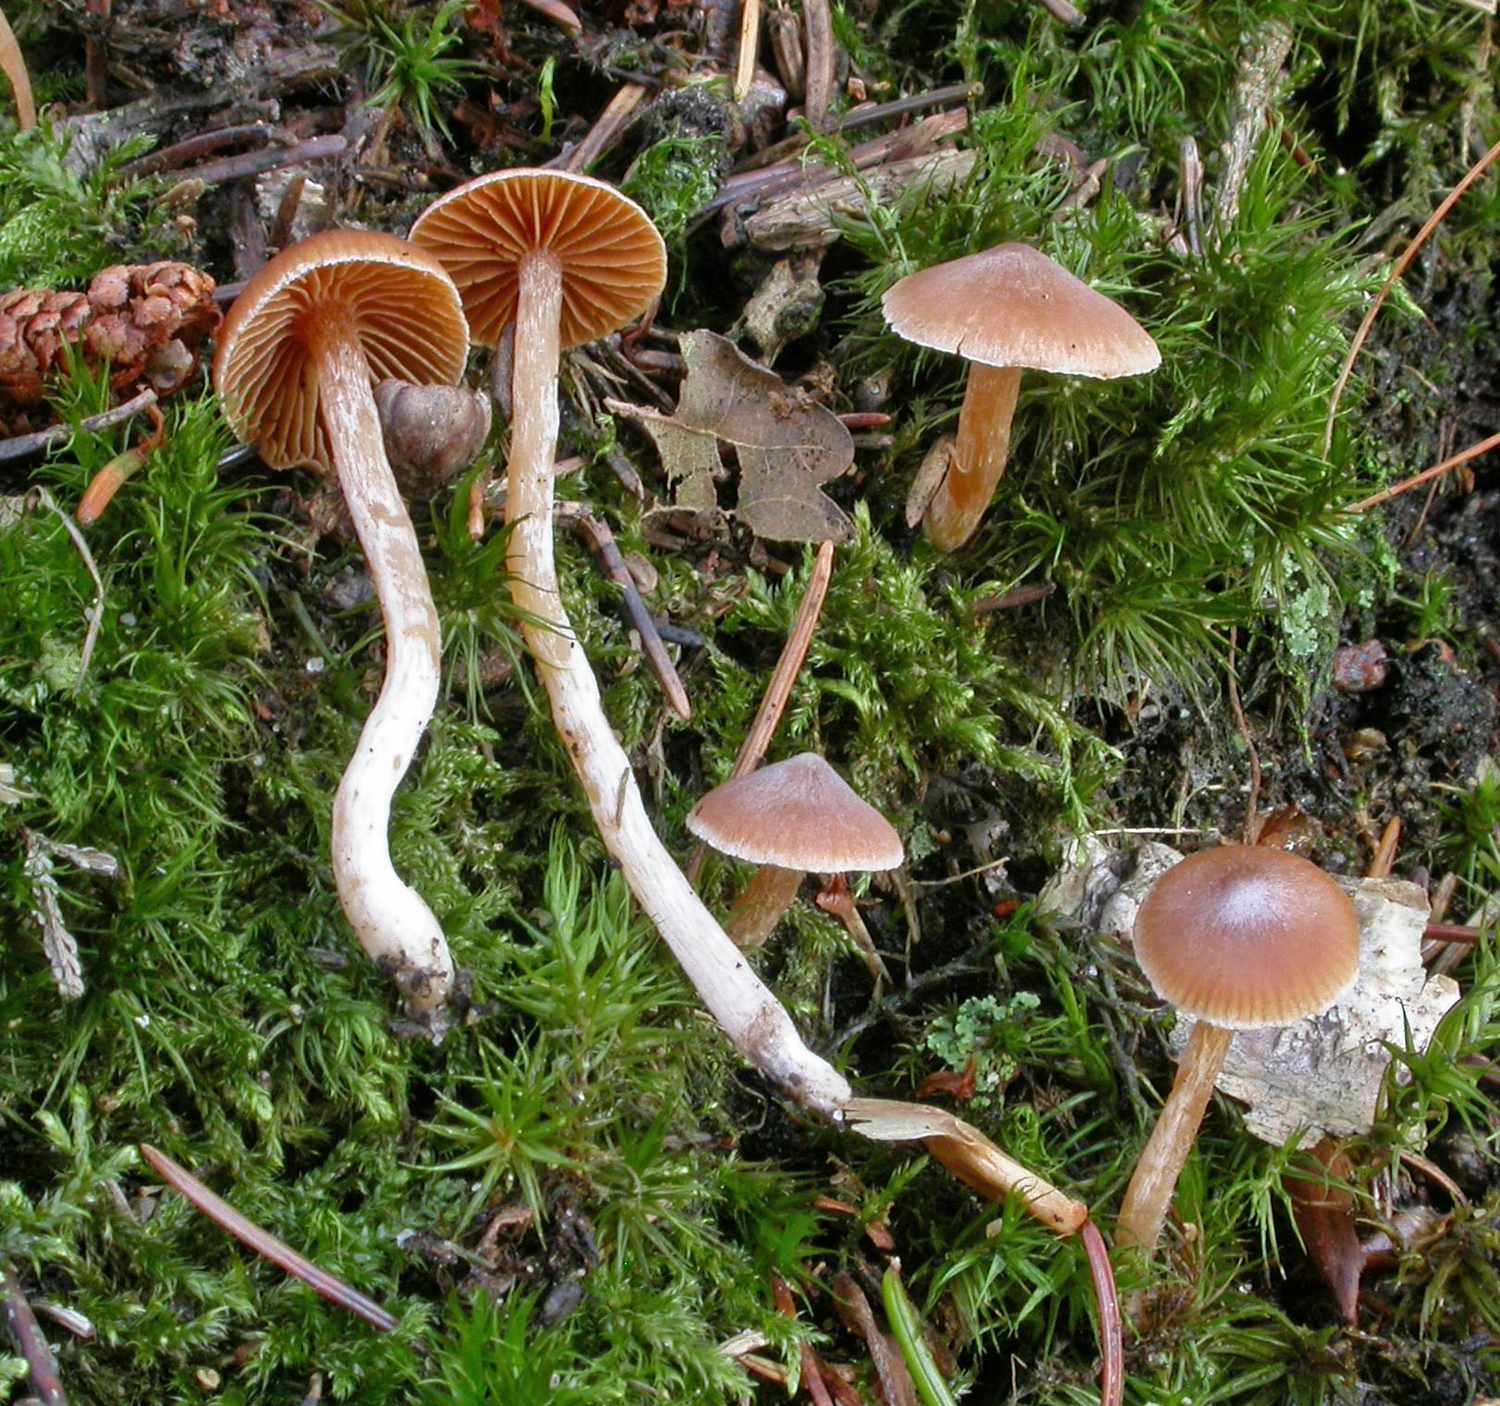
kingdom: Fungi
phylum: Basidiomycota
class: Agaricomycetes
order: Agaricales
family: Cortinariaceae
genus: Cortinarius
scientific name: Cortinarius
